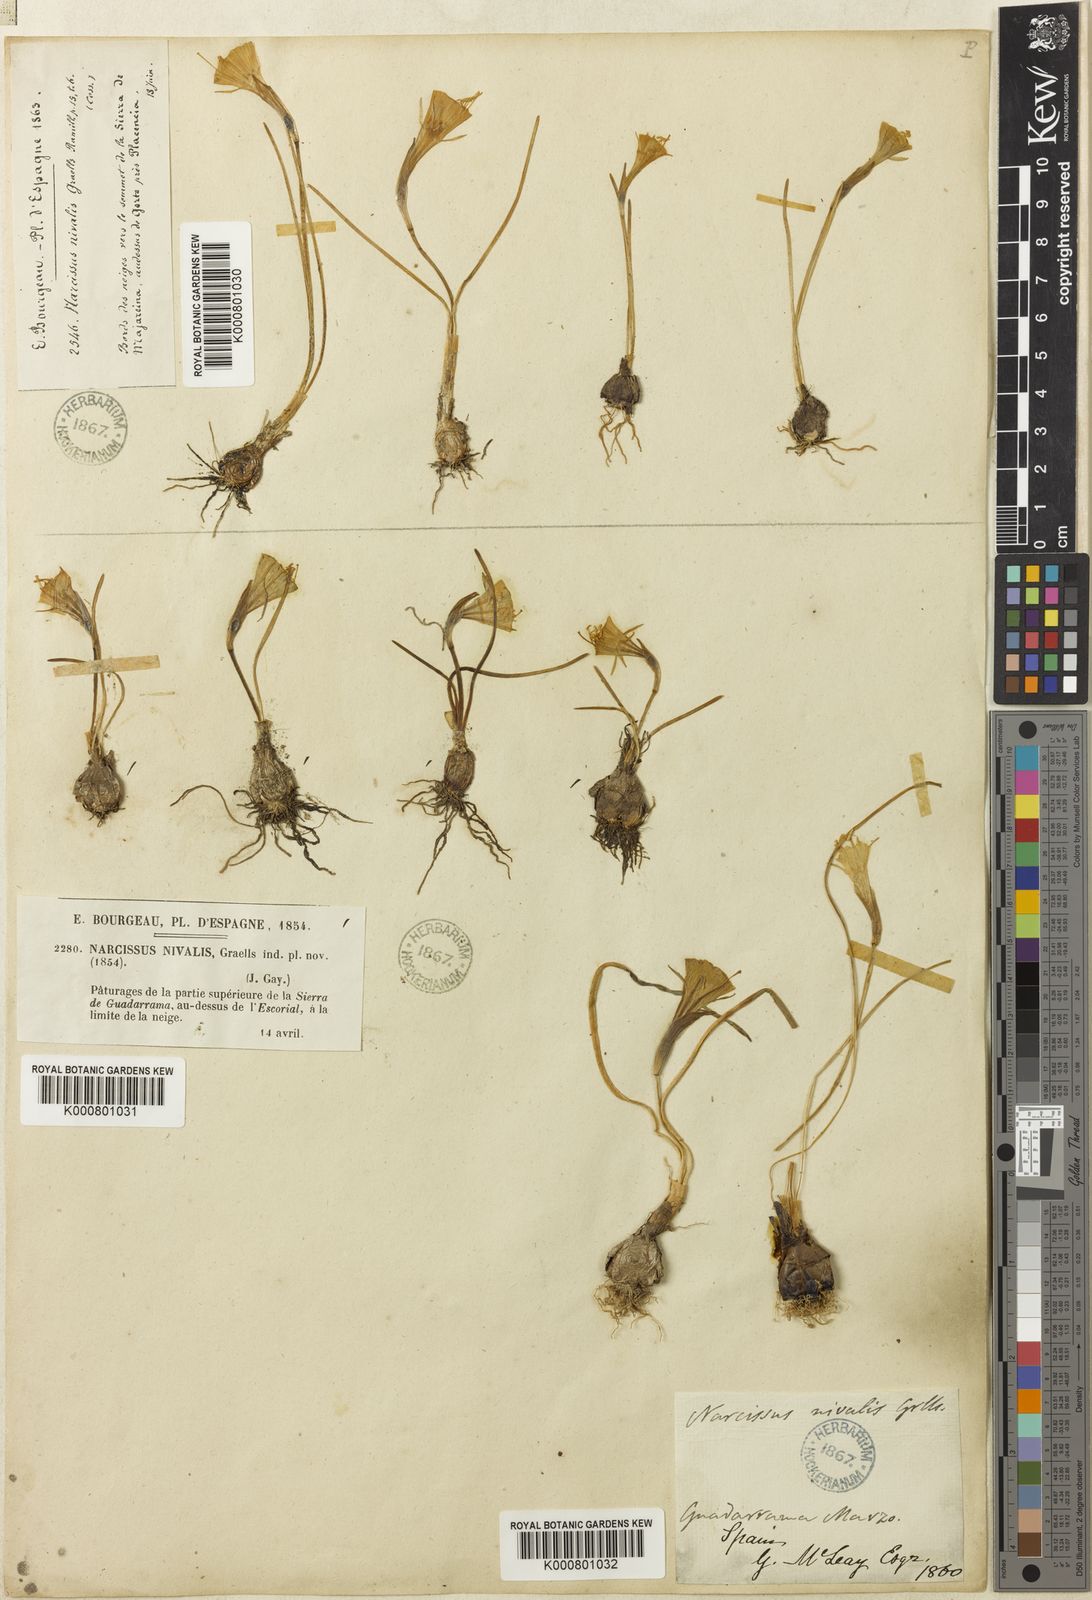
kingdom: Plantae
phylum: Tracheophyta
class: Liliopsida
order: Asparagales
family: Amaryllidaceae
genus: Narcissus
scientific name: Narcissus bulbocodium
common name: Hoop-petticoat daffodil
